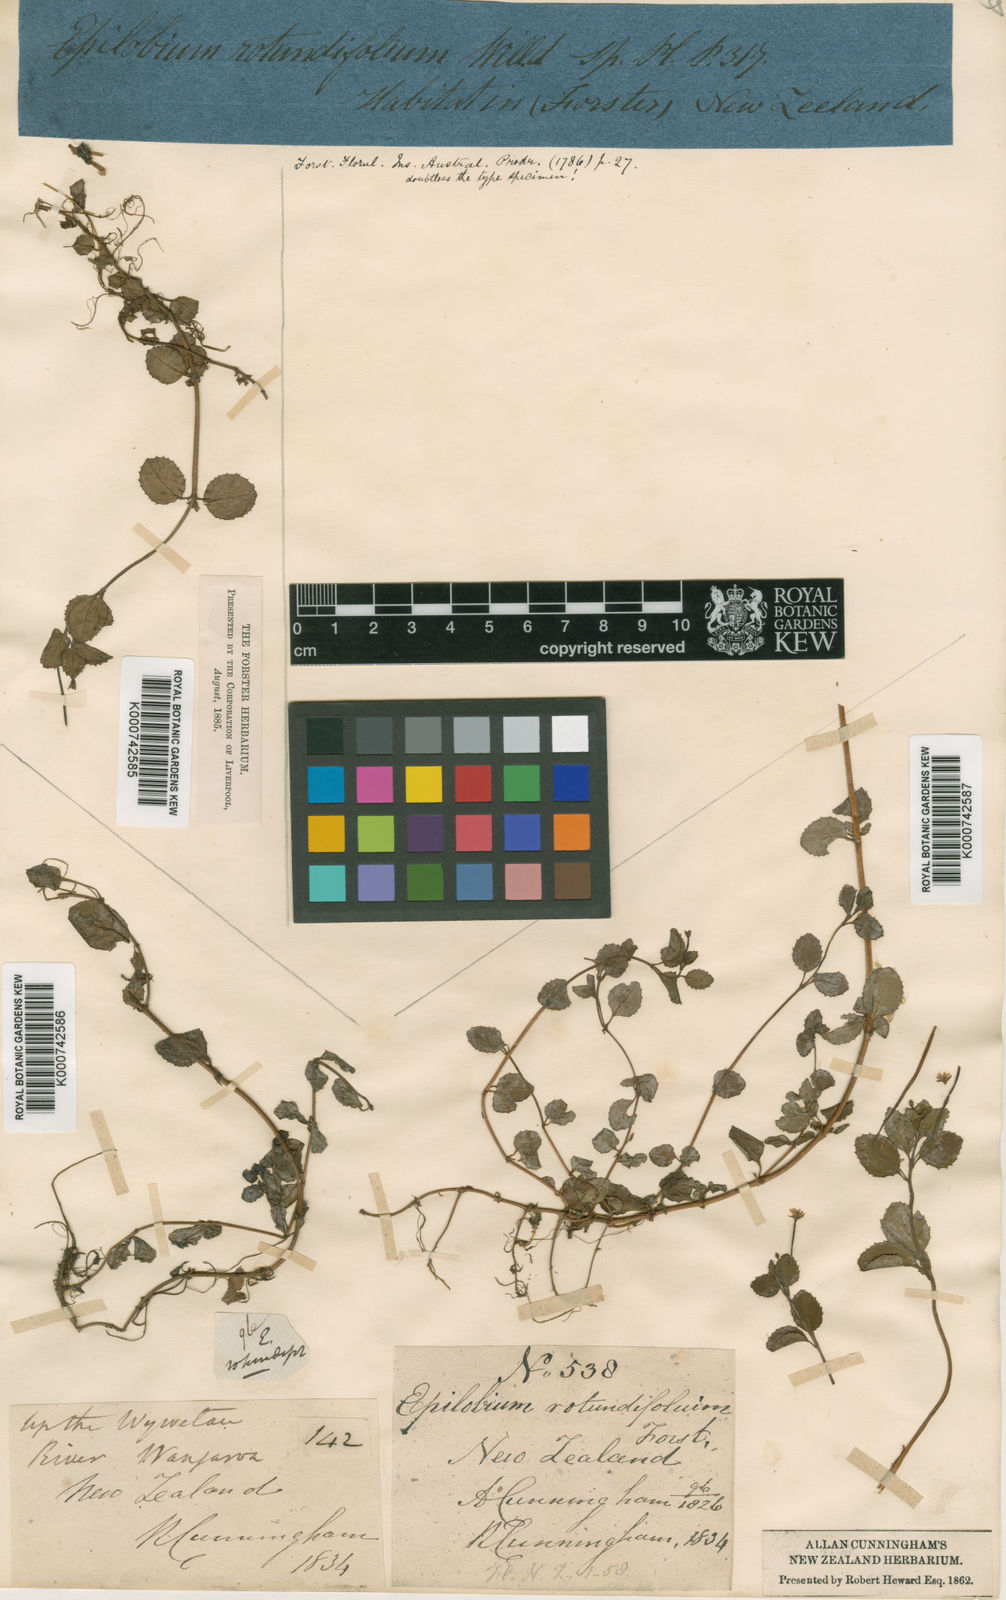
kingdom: Plantae
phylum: Tracheophyta
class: Magnoliopsida
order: Myrtales
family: Onagraceae
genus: Epilobium
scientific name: Epilobium rotundifolium
